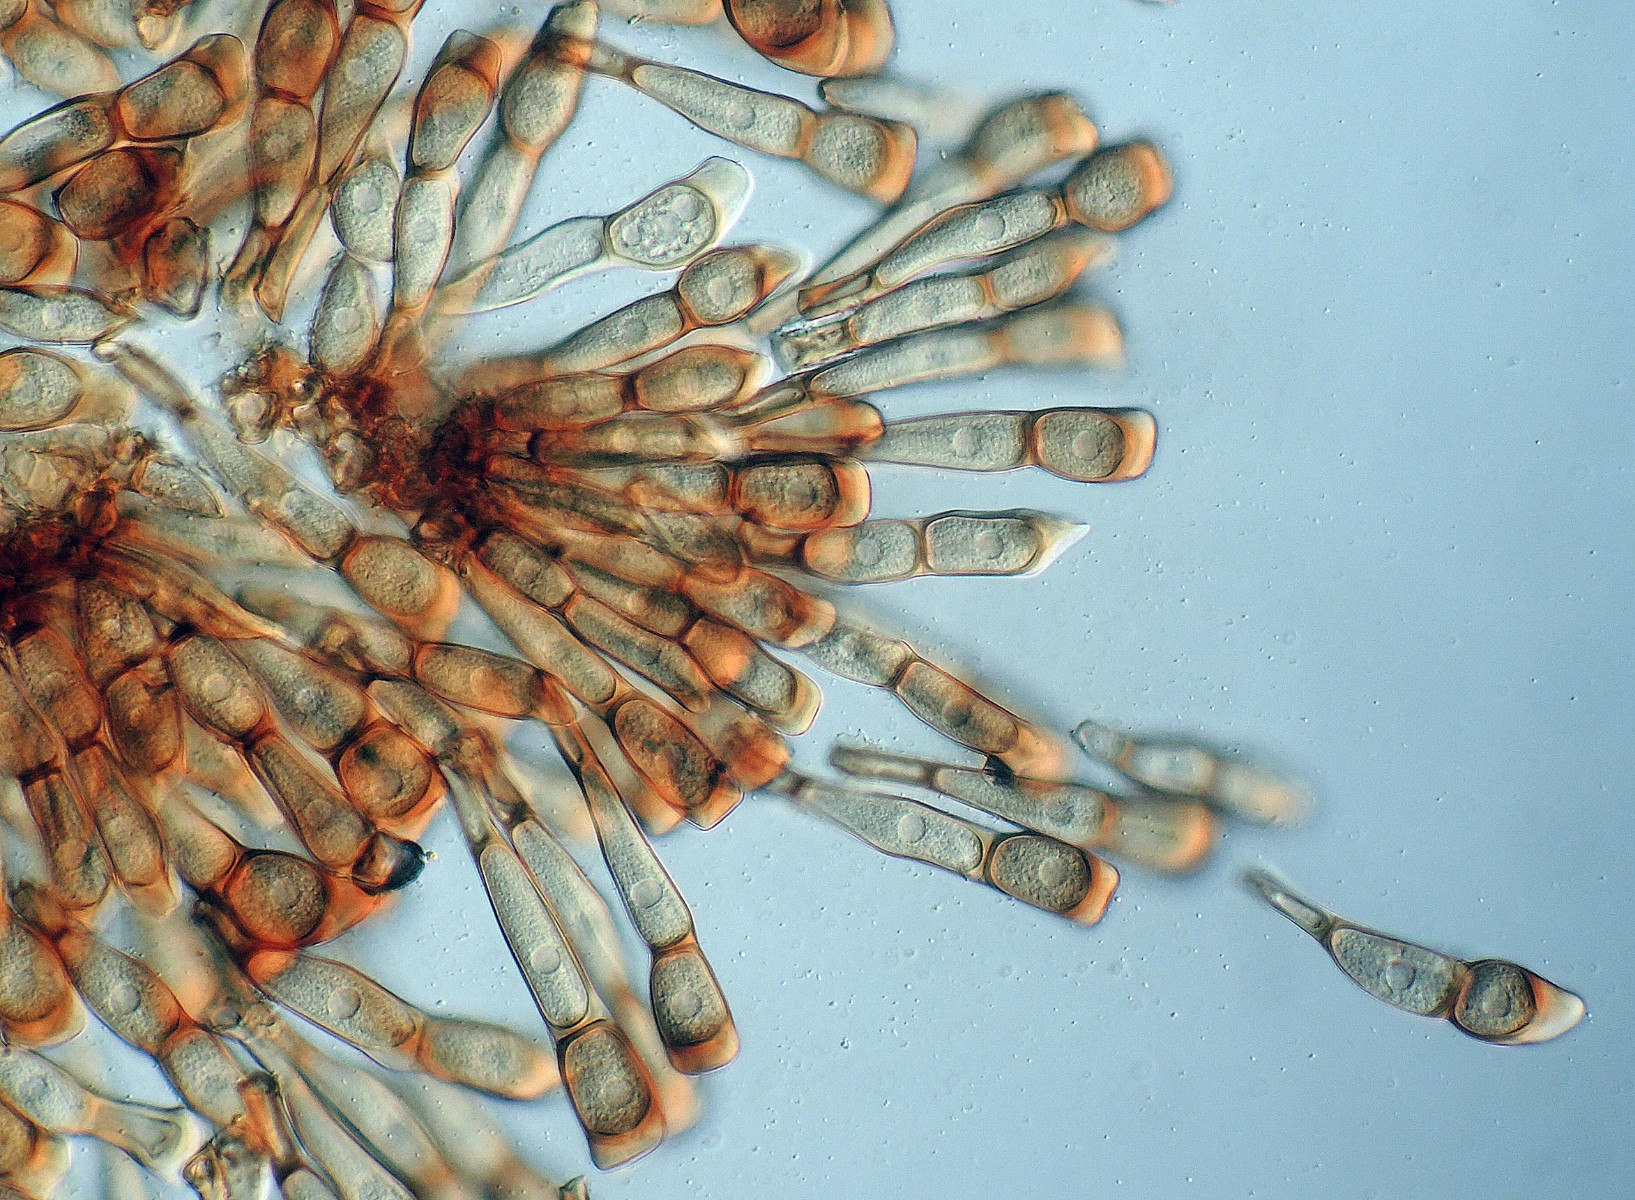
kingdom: Fungi
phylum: Basidiomycota
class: Pucciniomycetes
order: Pucciniales
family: Pucciniaceae
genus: Puccinia
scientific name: Puccinia dioicae
